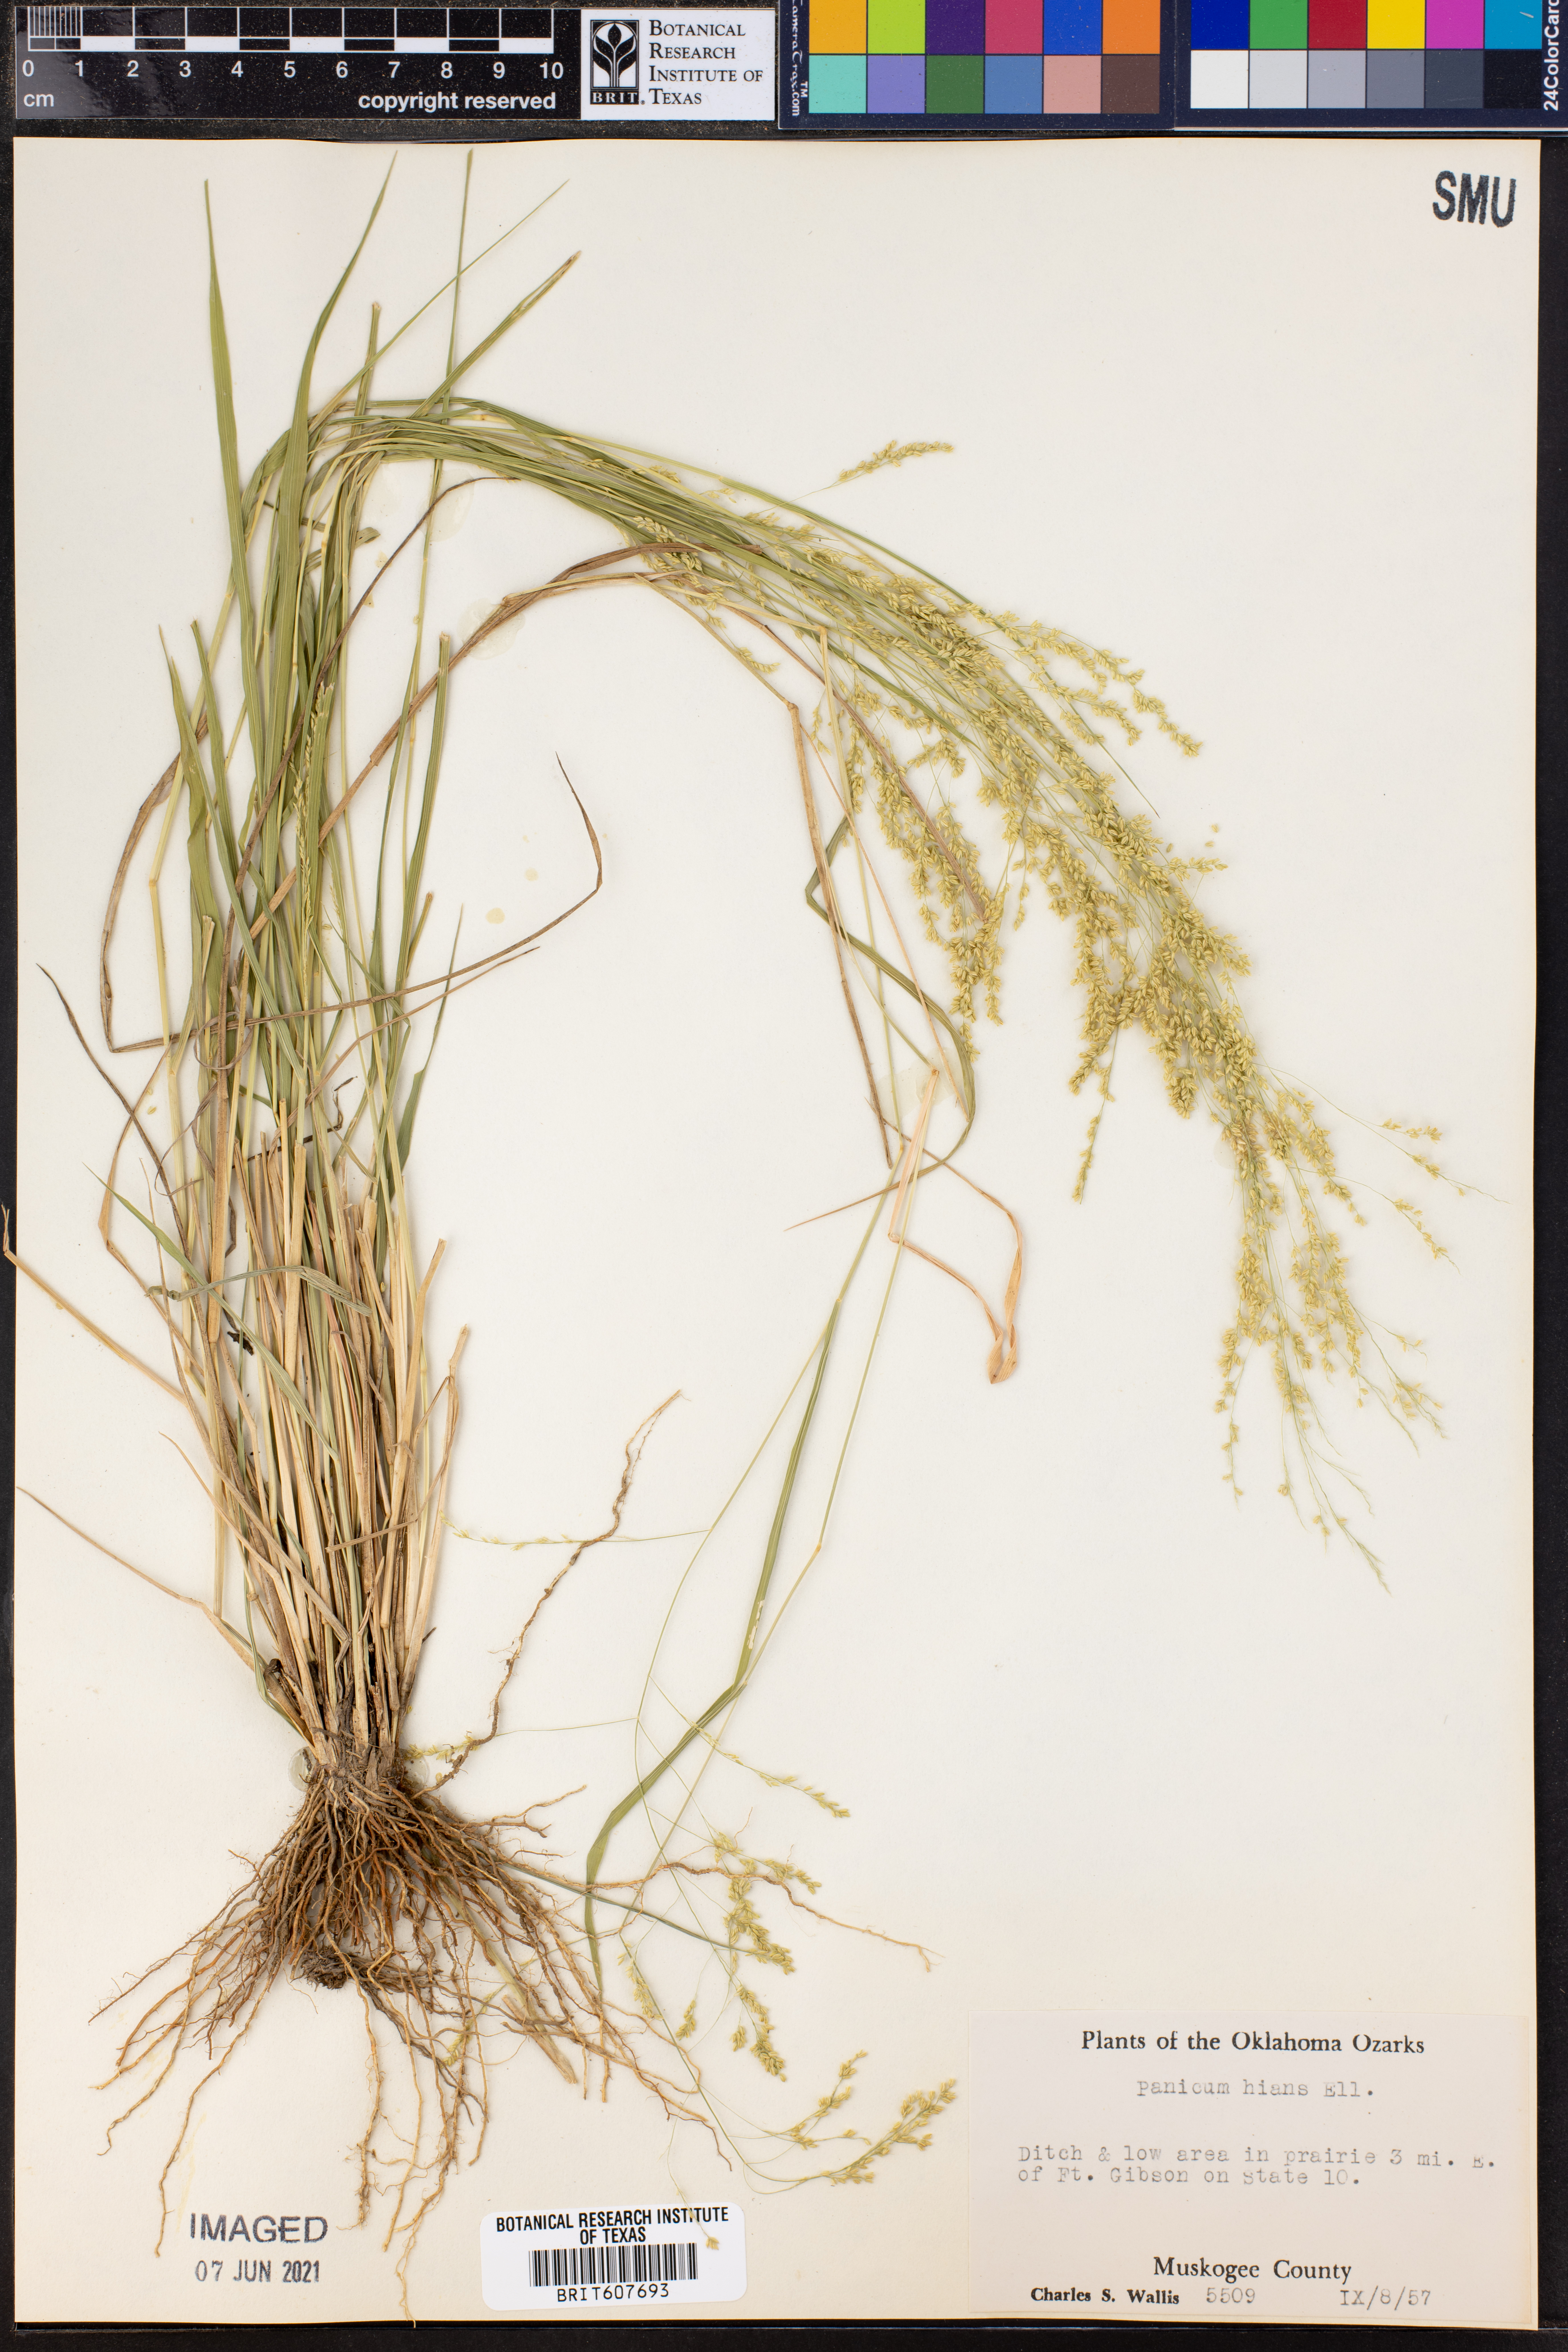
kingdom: Plantae
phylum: Tracheophyta
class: Liliopsida
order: Poales
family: Poaceae
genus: Coleataenia
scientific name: Coleataenia stenodes
